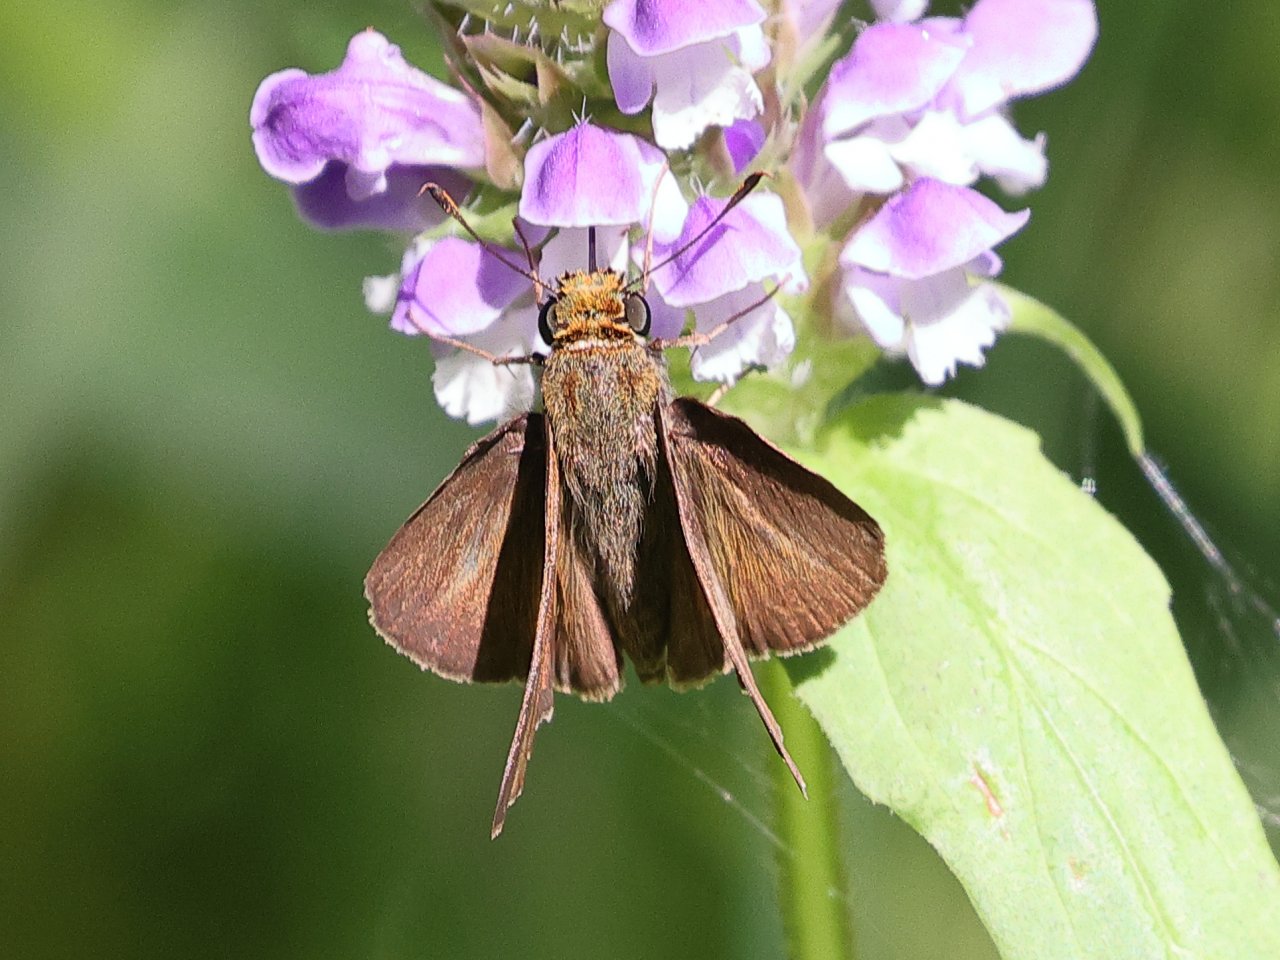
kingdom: Animalia
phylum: Arthropoda
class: Insecta
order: Lepidoptera
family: Hesperiidae
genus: Euphyes
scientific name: Euphyes vestris
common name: Dun Skipper
